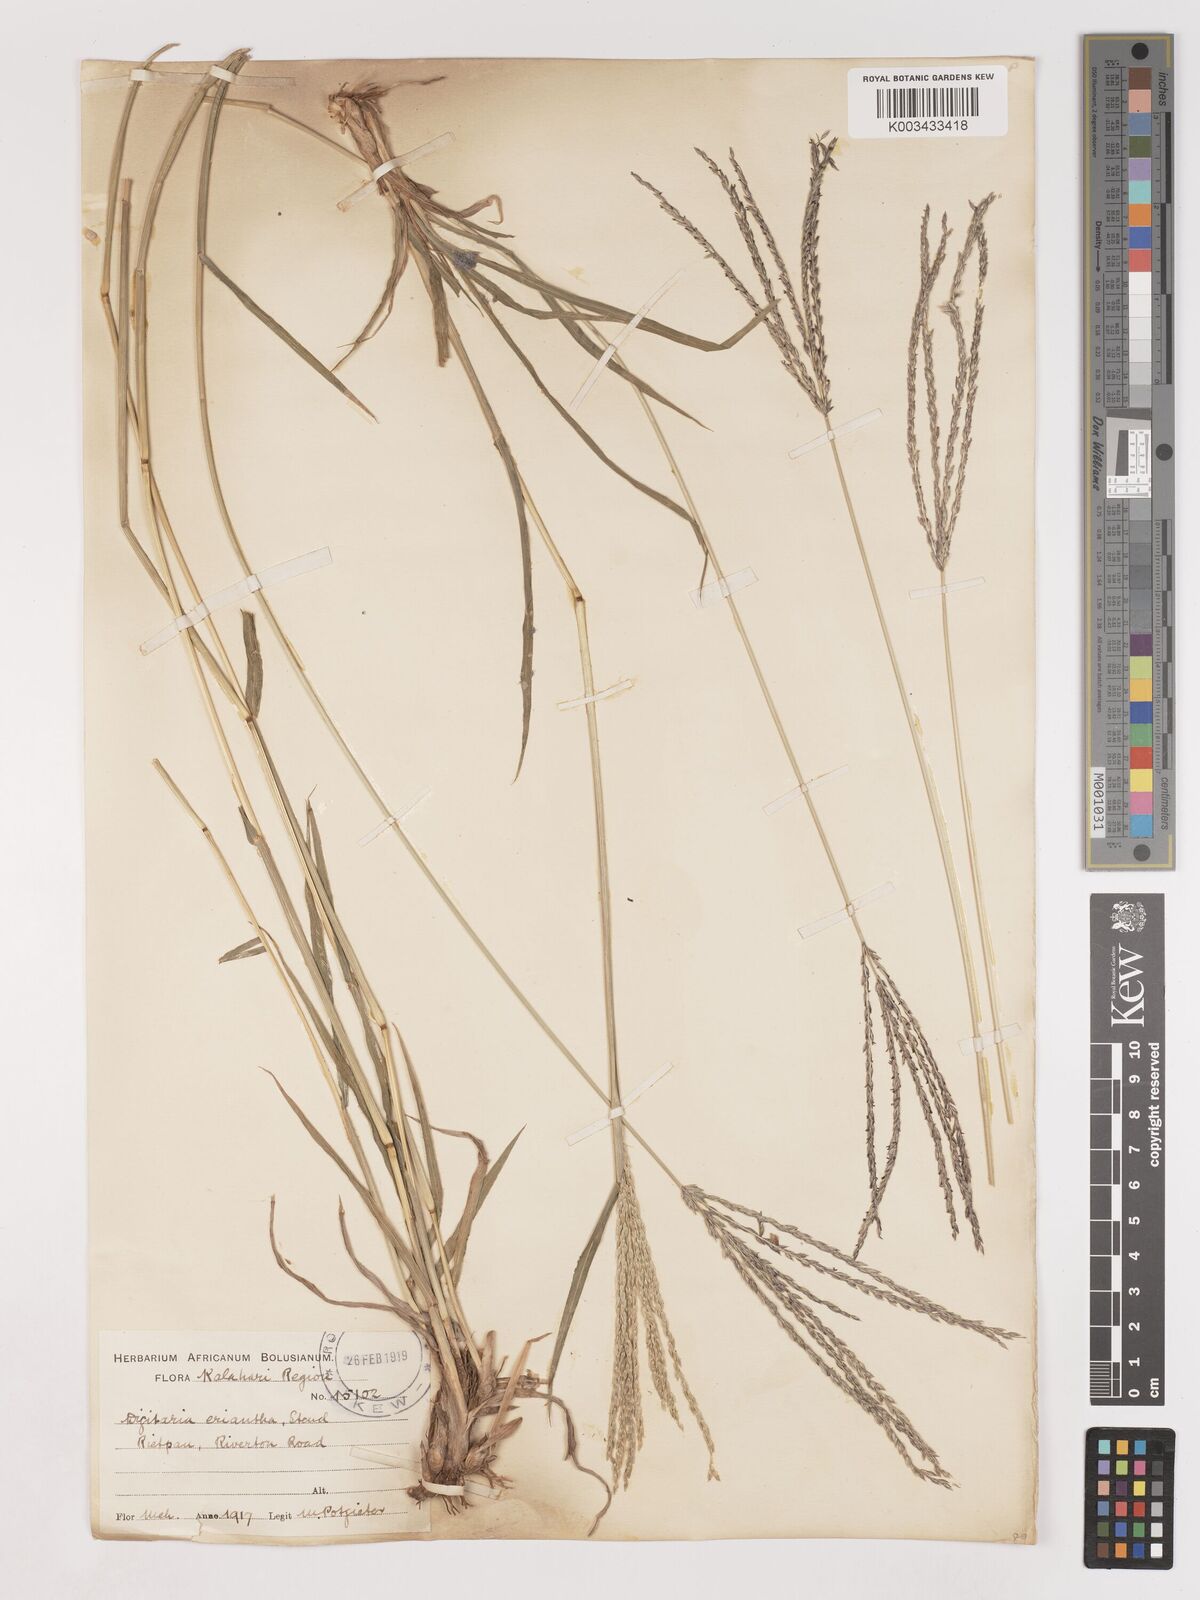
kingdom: Plantae
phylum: Tracheophyta
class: Liliopsida
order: Poales
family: Poaceae
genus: Digitaria
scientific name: Digitaria eriantha
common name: Digitgrass
